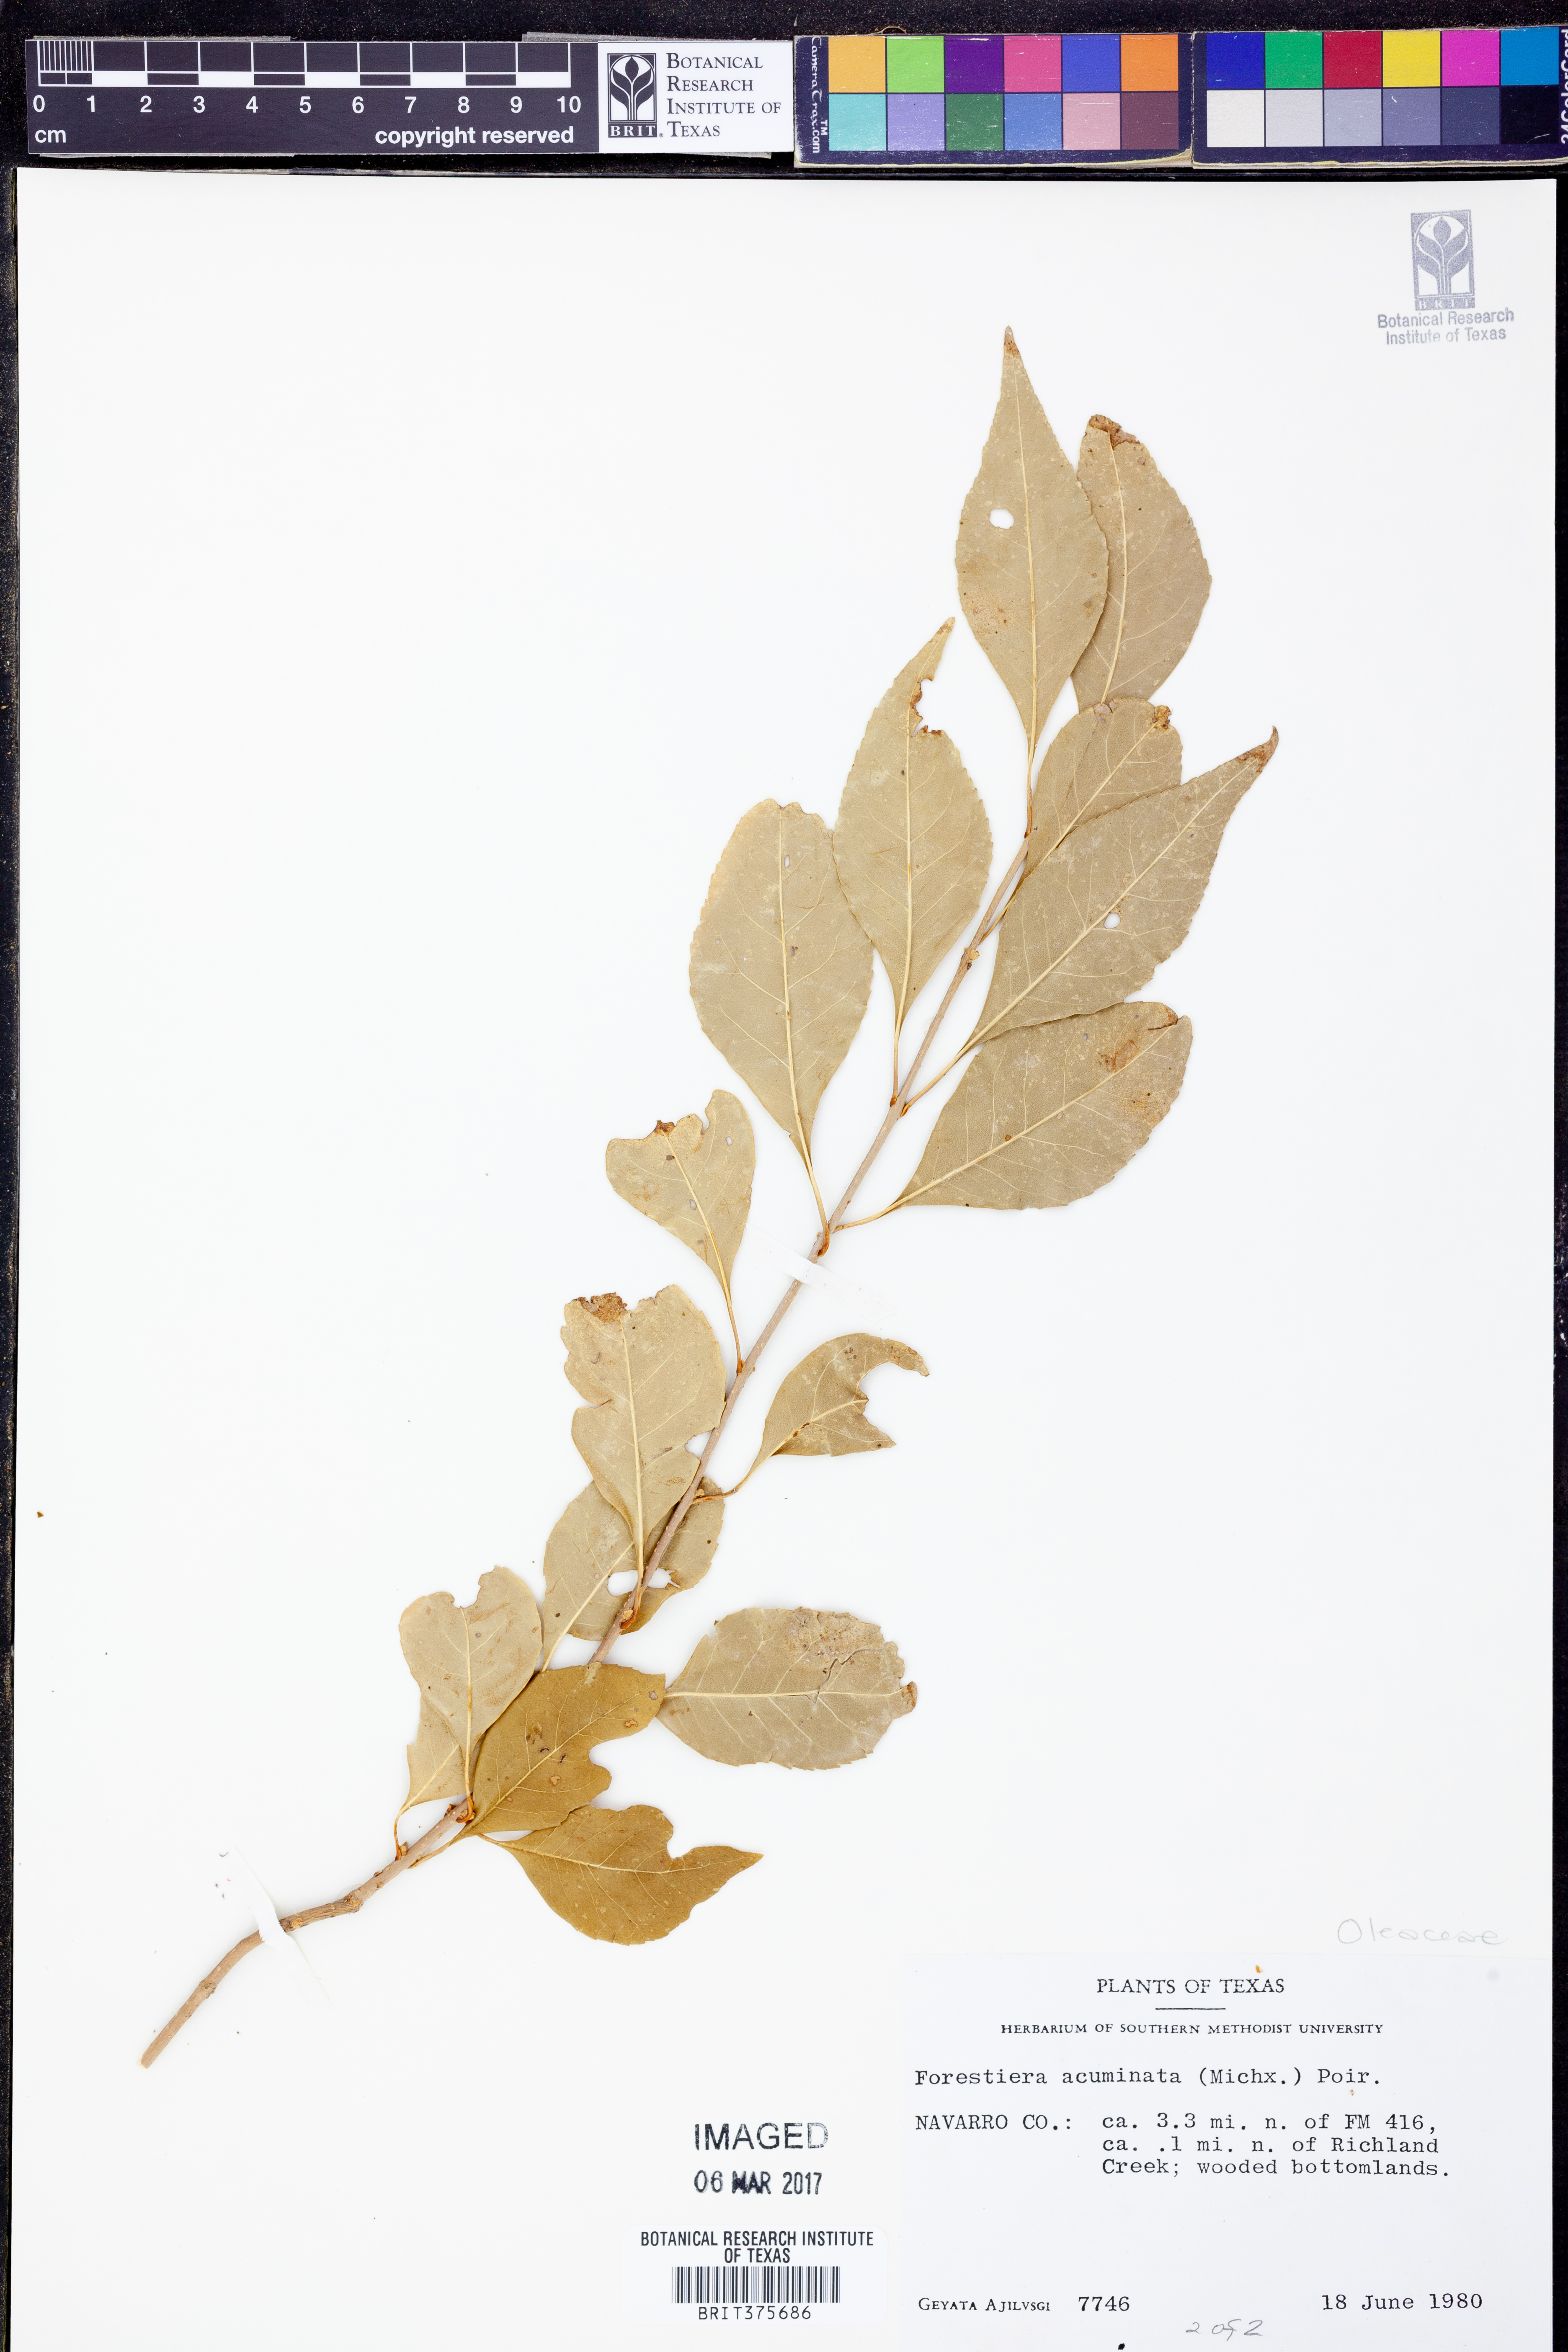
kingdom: Plantae
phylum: Tracheophyta
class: Magnoliopsida
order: Lamiales
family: Oleaceae
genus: Forestiera
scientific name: Forestiera acuminata
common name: Swamp-privet
